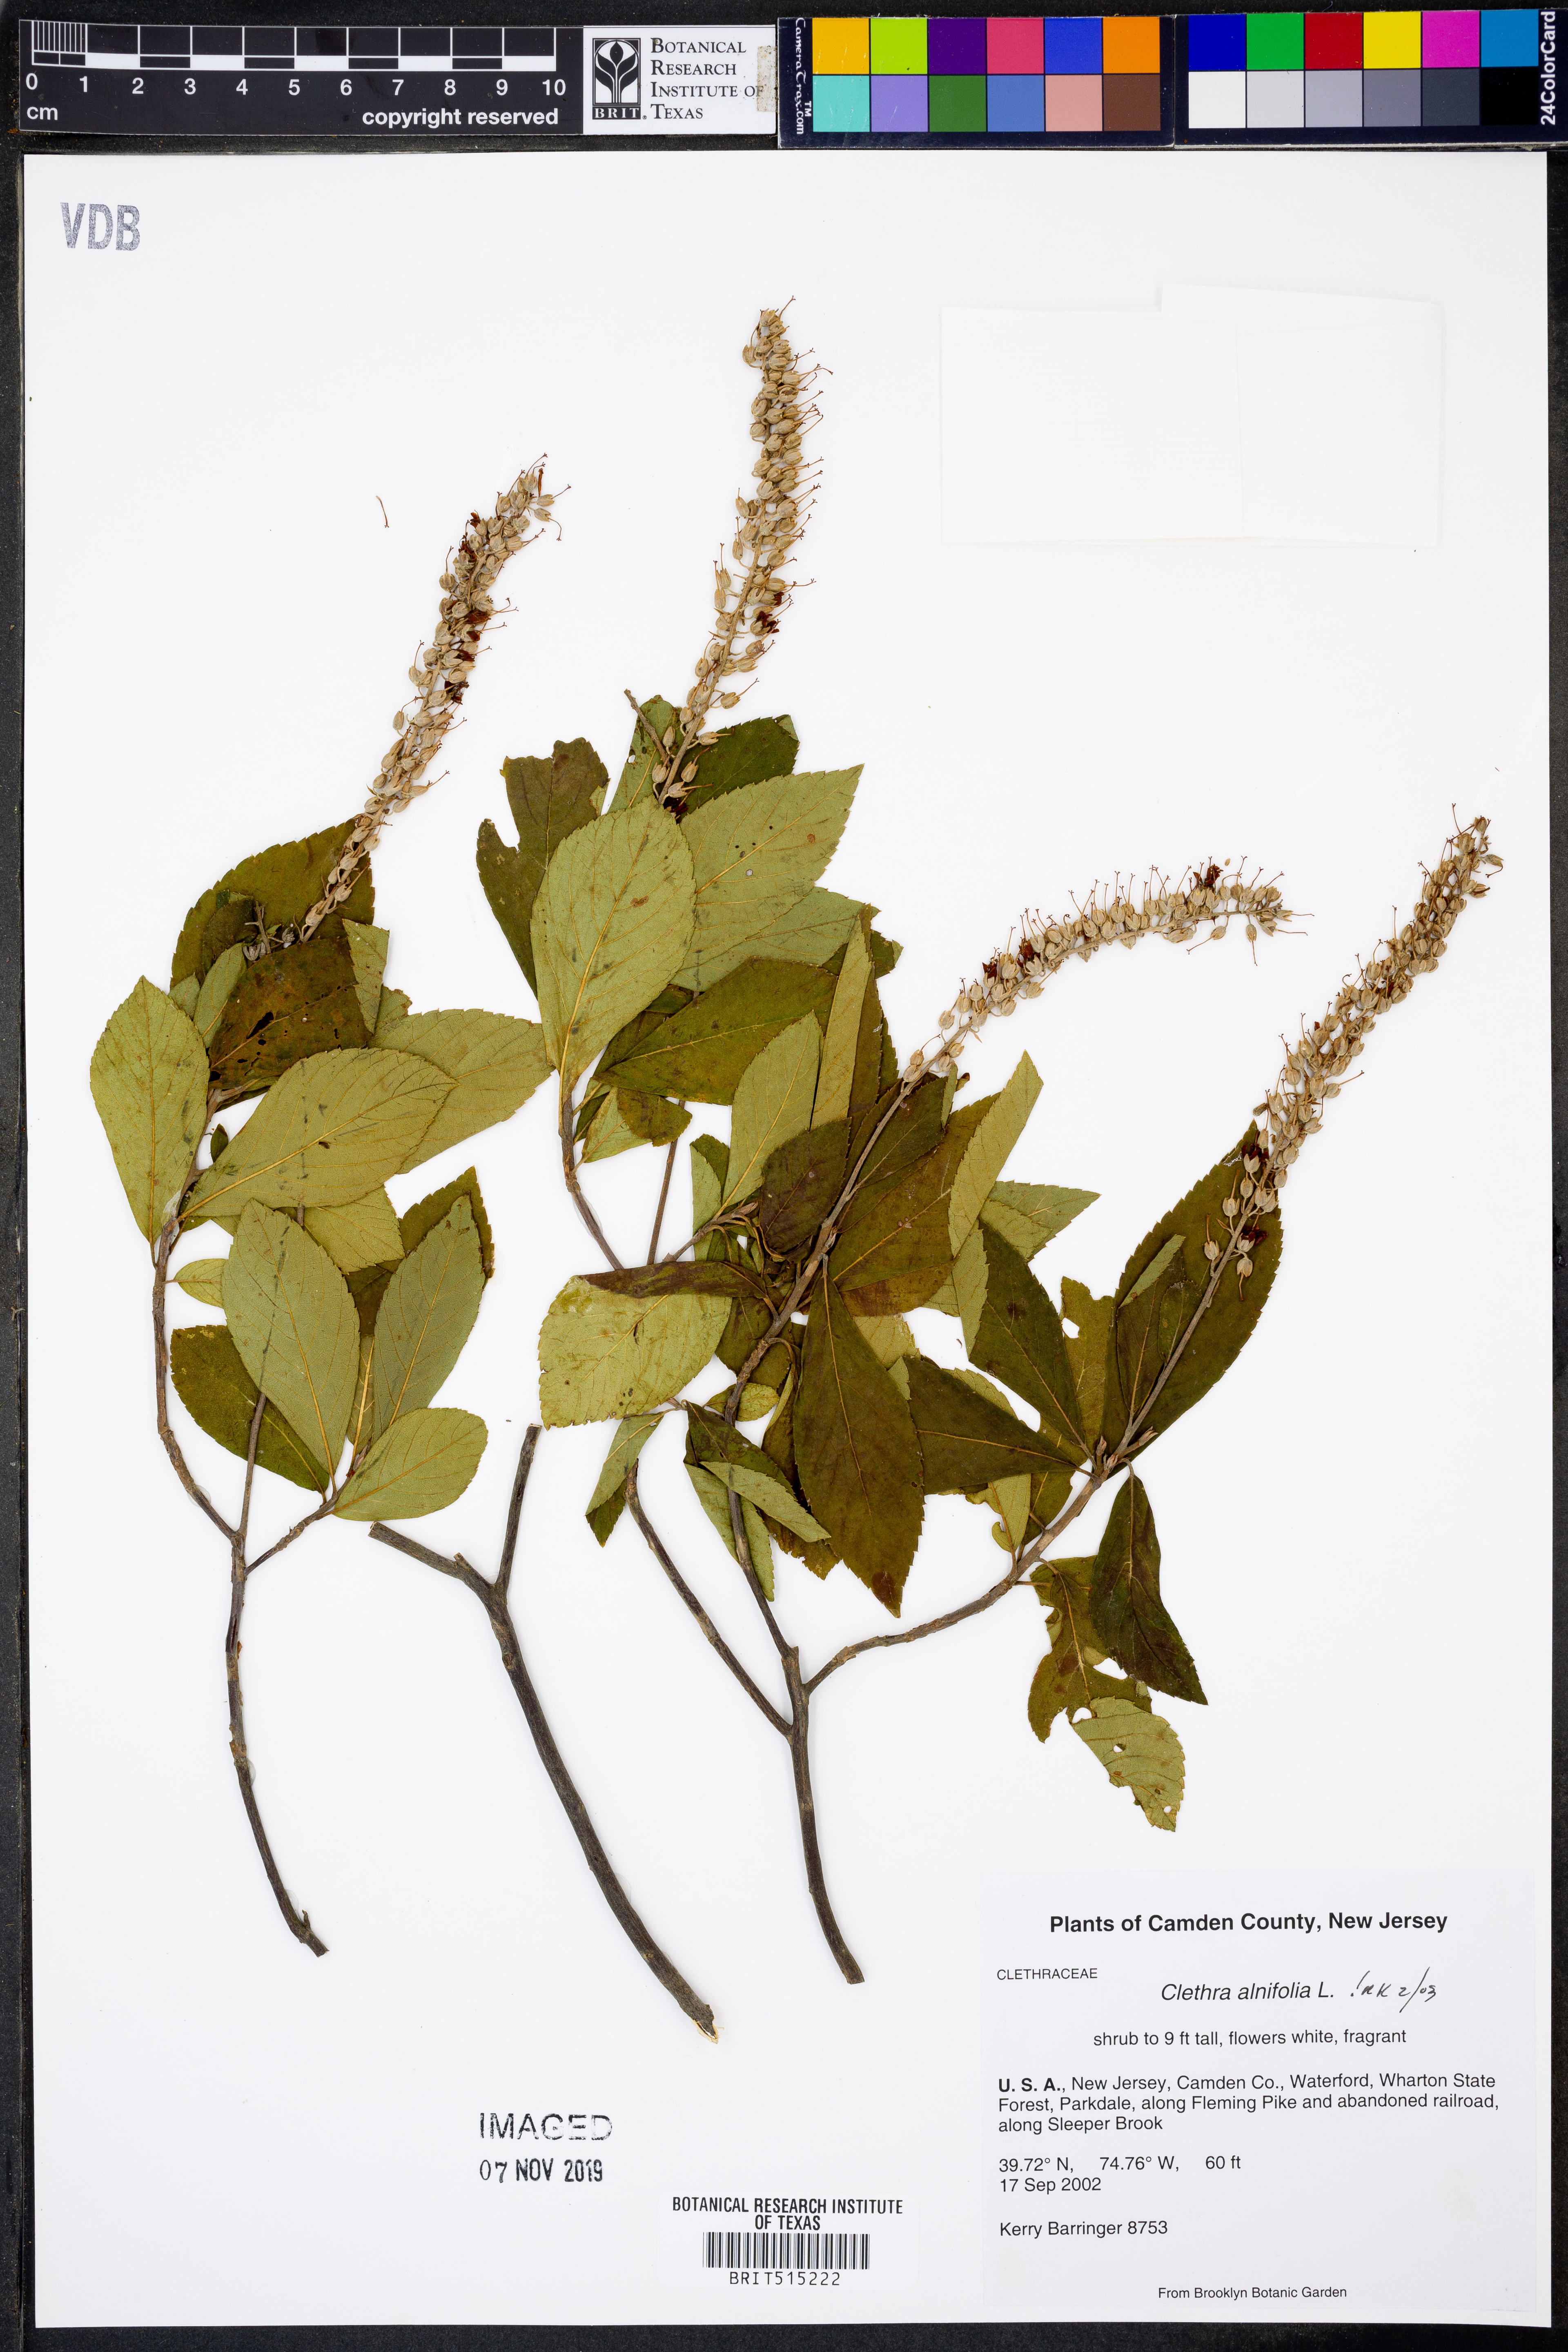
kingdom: Plantae
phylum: Tracheophyta
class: Magnoliopsida
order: Ericales
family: Clethraceae
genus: Clethra
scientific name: Clethra alnifolia
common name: Sweet pepperbush
